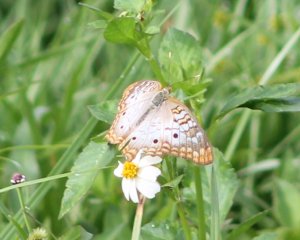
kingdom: Animalia
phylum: Arthropoda
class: Insecta
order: Lepidoptera
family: Nymphalidae
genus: Anartia
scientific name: Anartia jatrophae
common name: White Peacock
